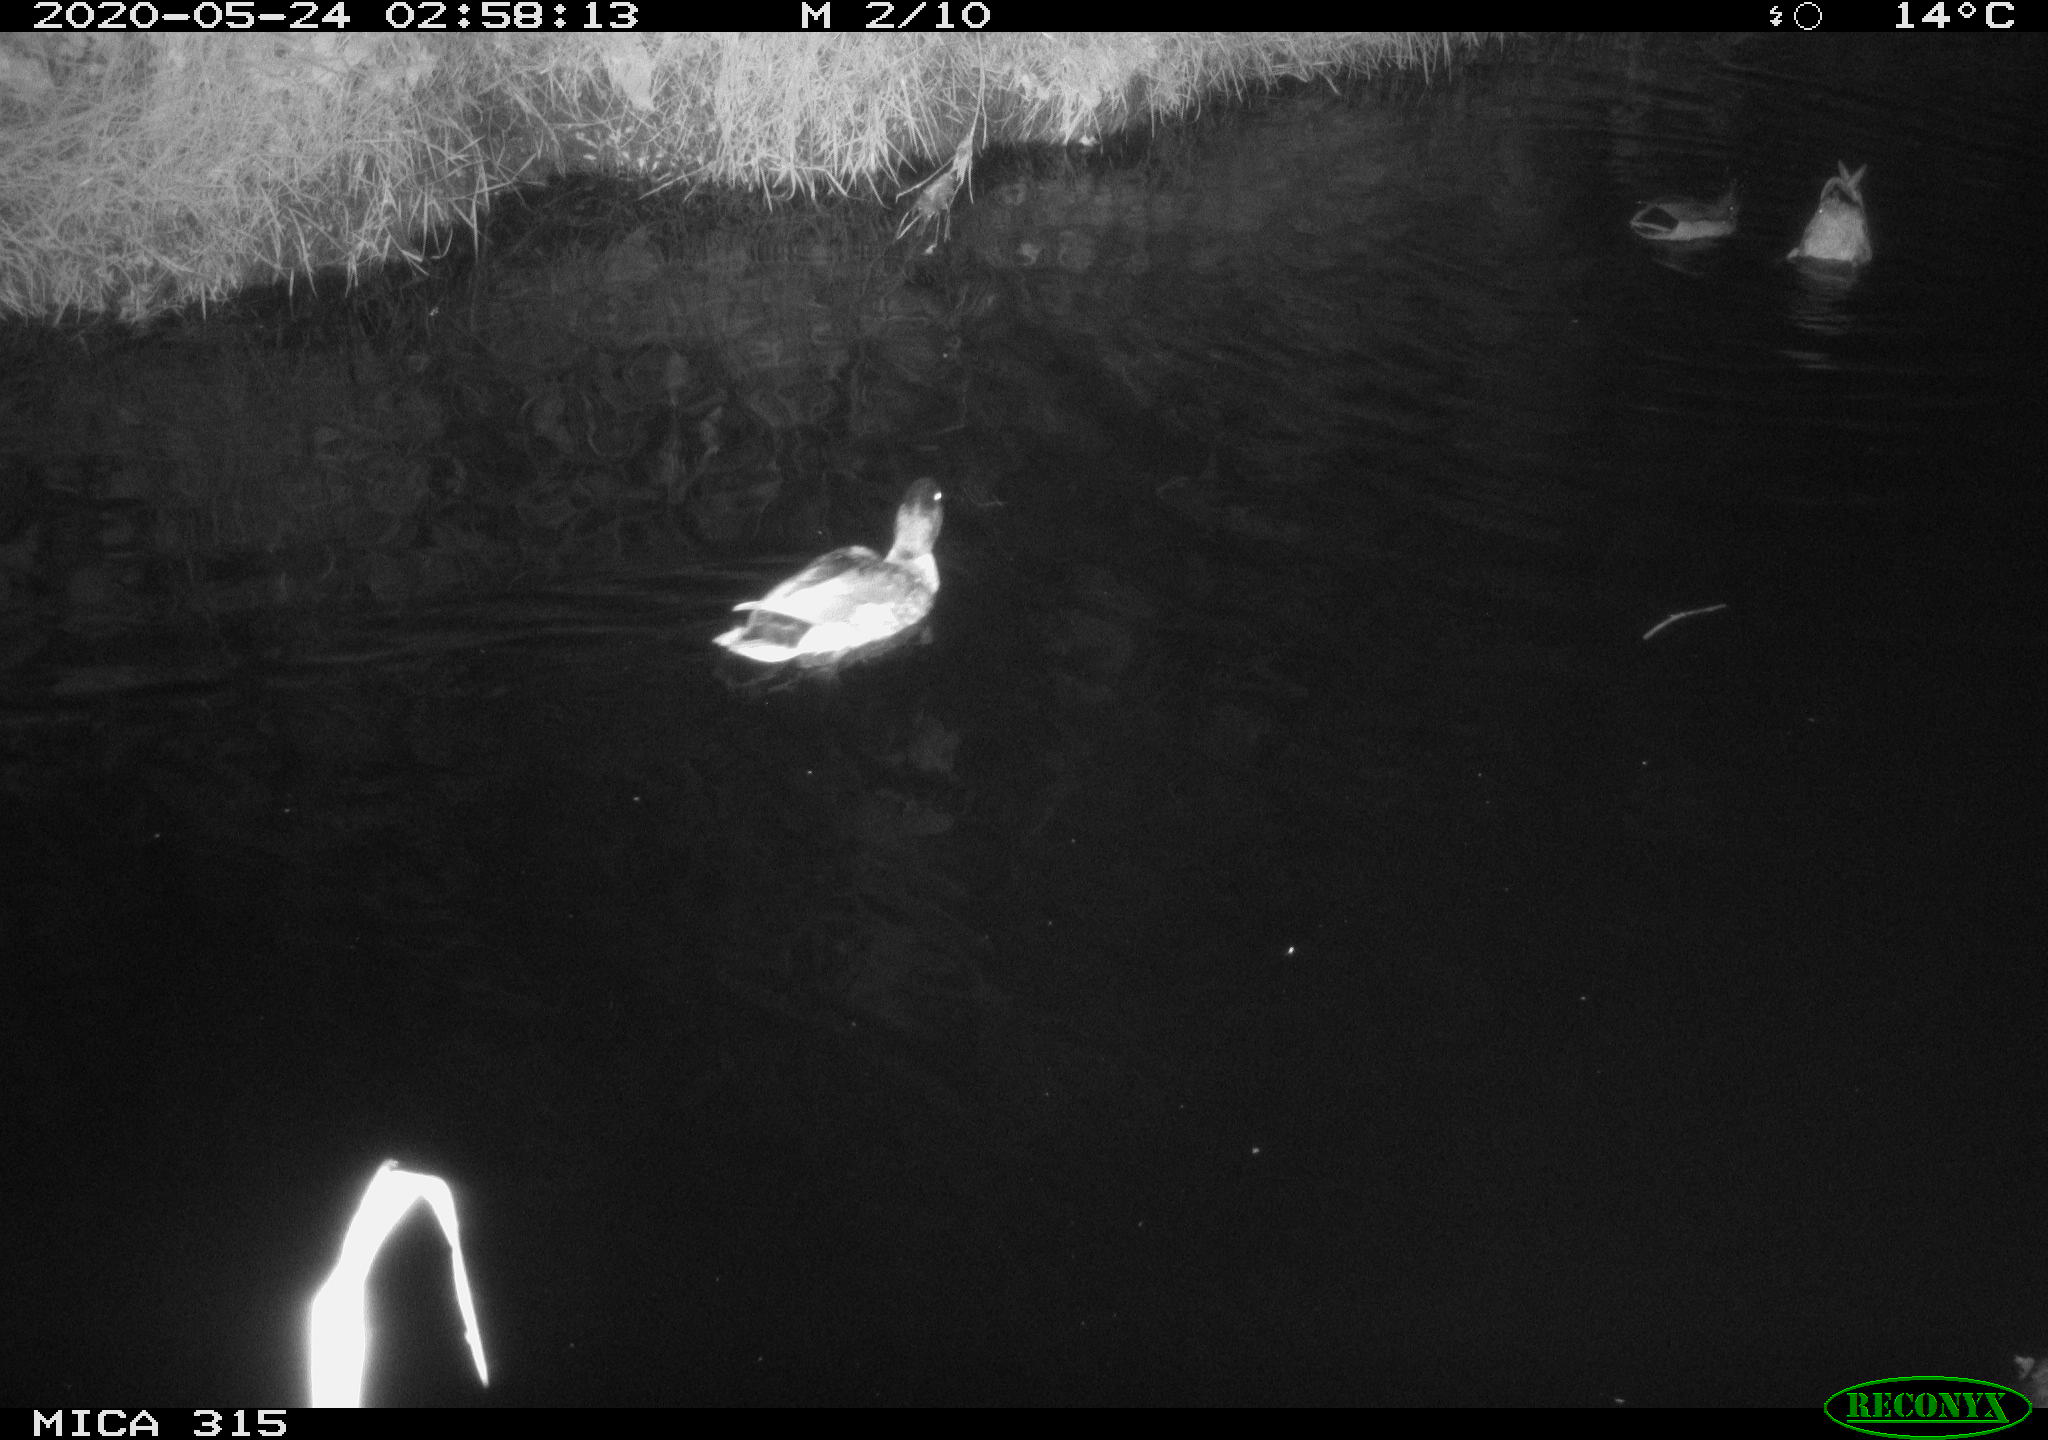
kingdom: Animalia
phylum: Chordata
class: Aves
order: Anseriformes
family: Anatidae
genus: Anas
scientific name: Anas platyrhynchos
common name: Mallard
